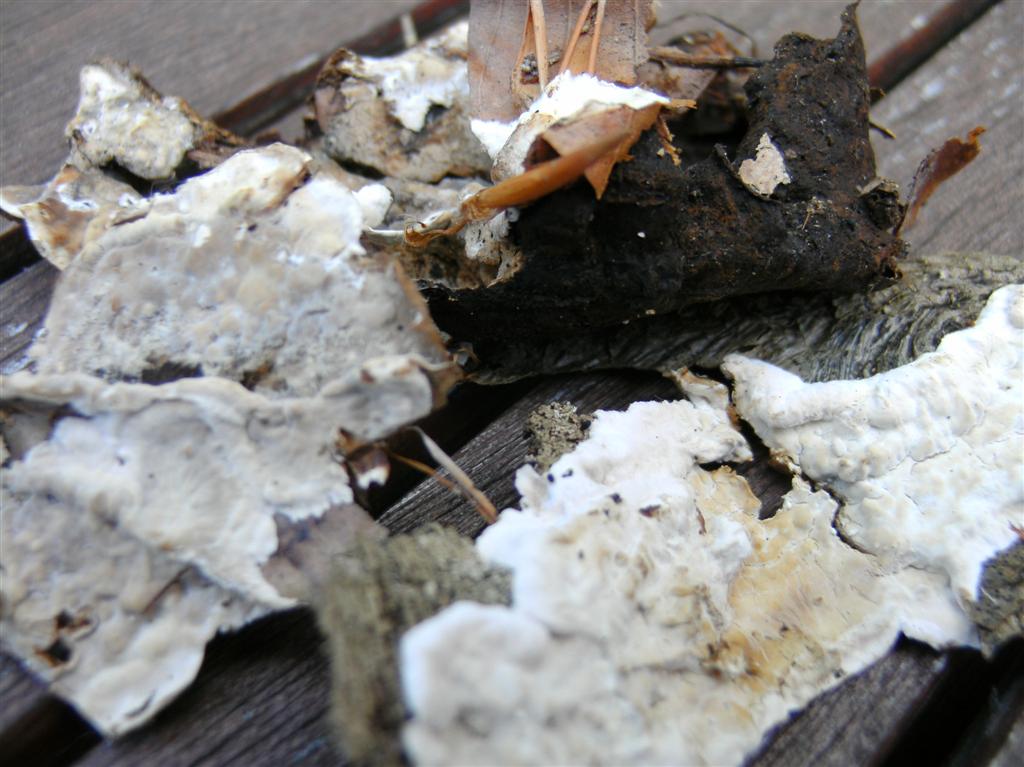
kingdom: Fungi
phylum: Basidiomycota
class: Agaricomycetes
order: Russulales
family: Hericiaceae
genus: Laxitextum
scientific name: Laxitextum bicolor
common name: tvefarvet filtskind
